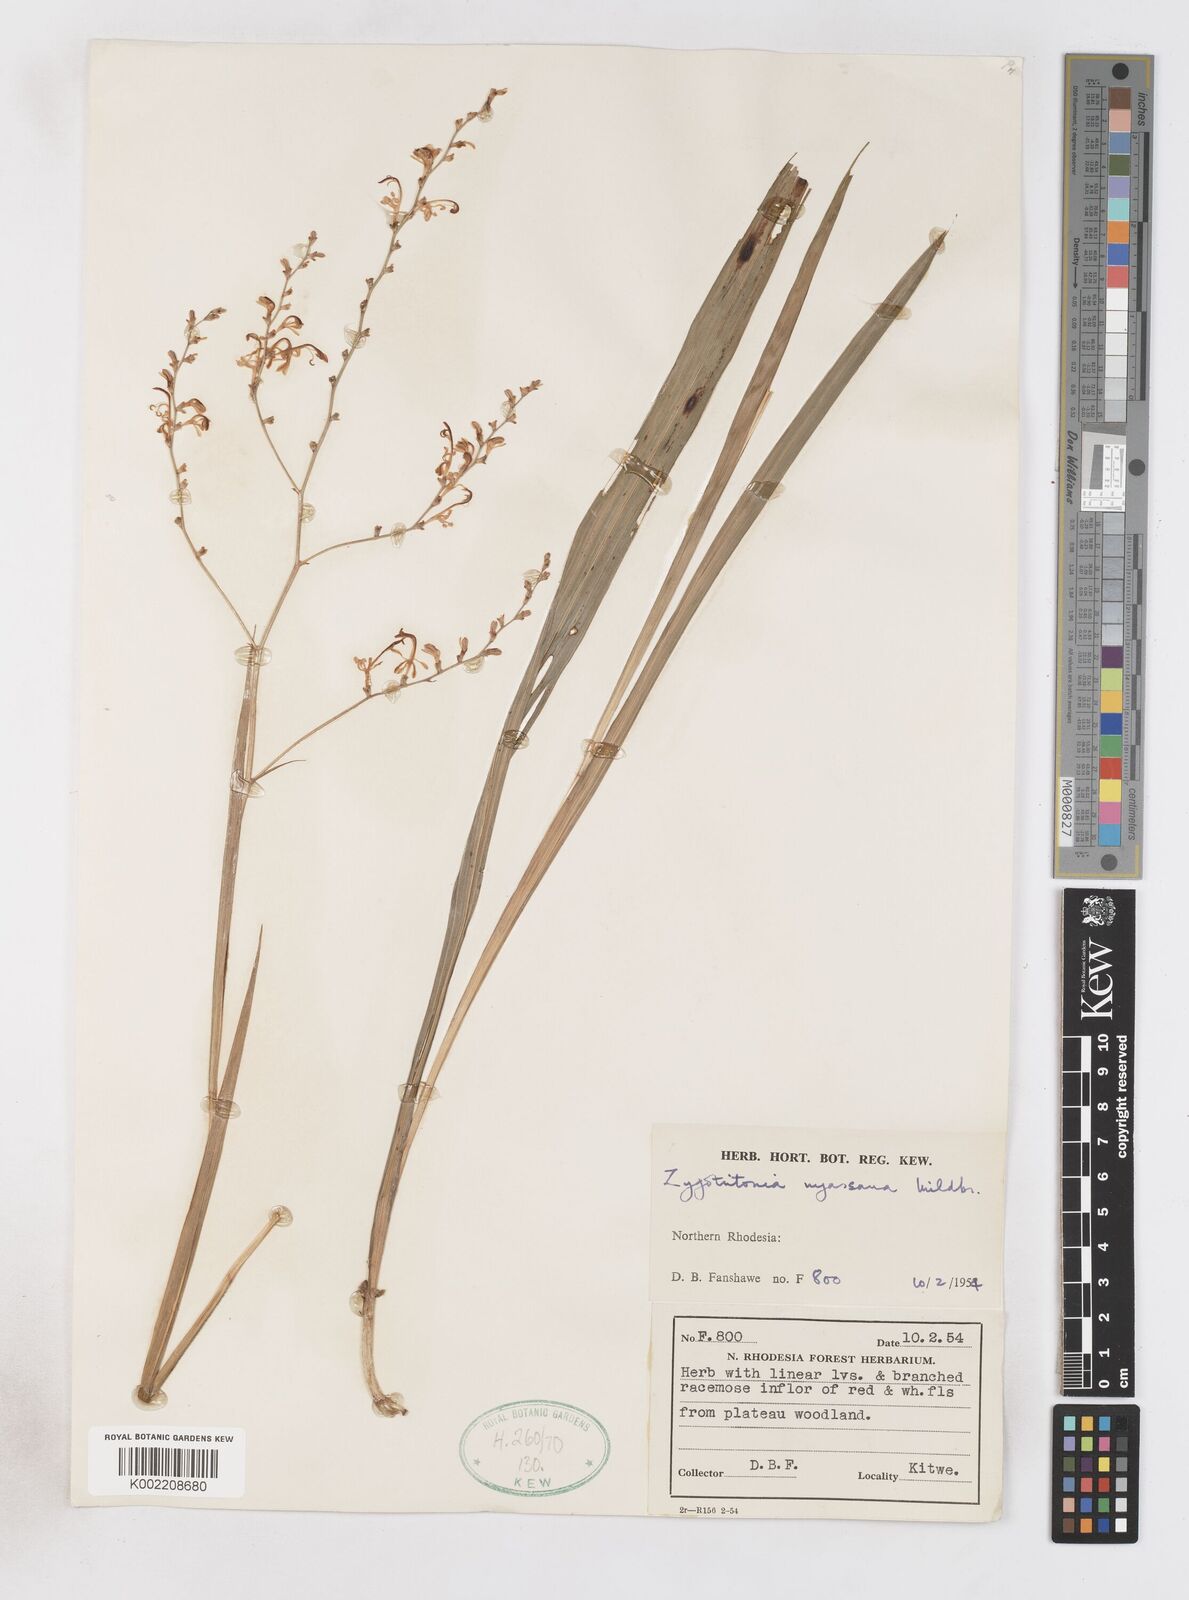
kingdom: Plantae
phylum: Tracheophyta
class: Liliopsida
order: Asparagales
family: Iridaceae
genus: Zygotritonia
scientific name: Zygotritonia nyassana
